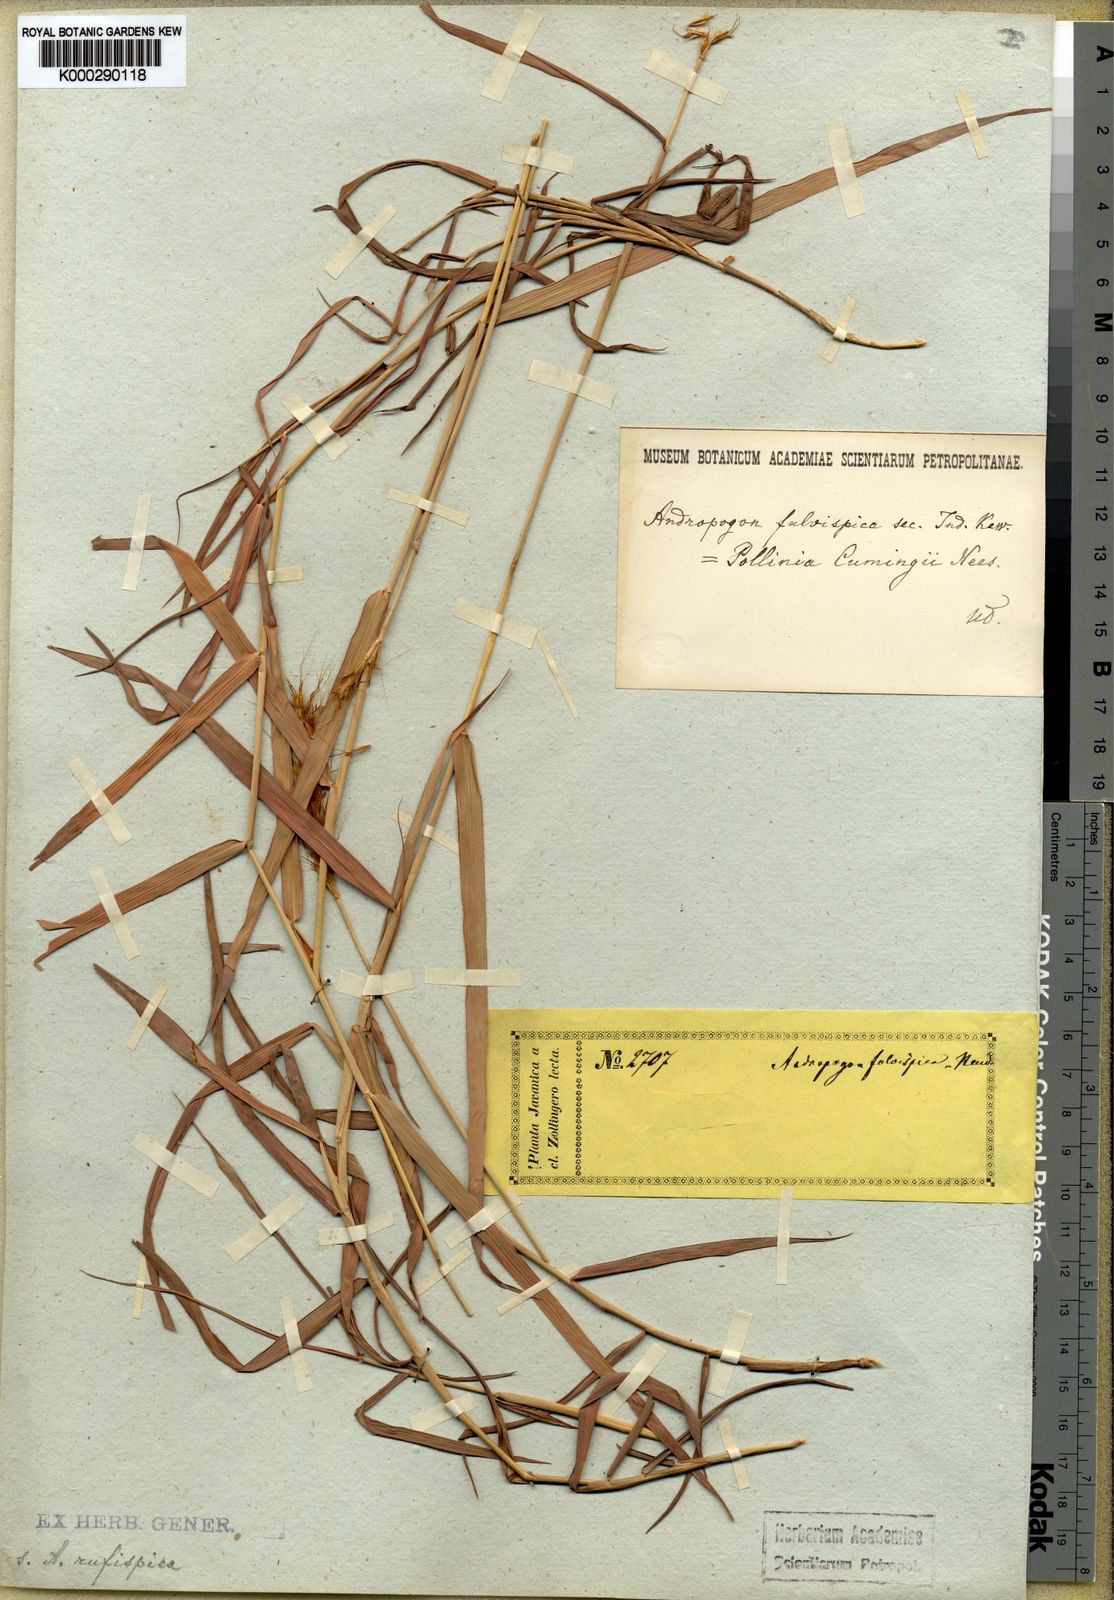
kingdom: Plantae
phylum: Tracheophyta
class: Liliopsida
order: Poales
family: Poaceae
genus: Eulalia
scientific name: Eulalia aurea
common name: Silky browntop
